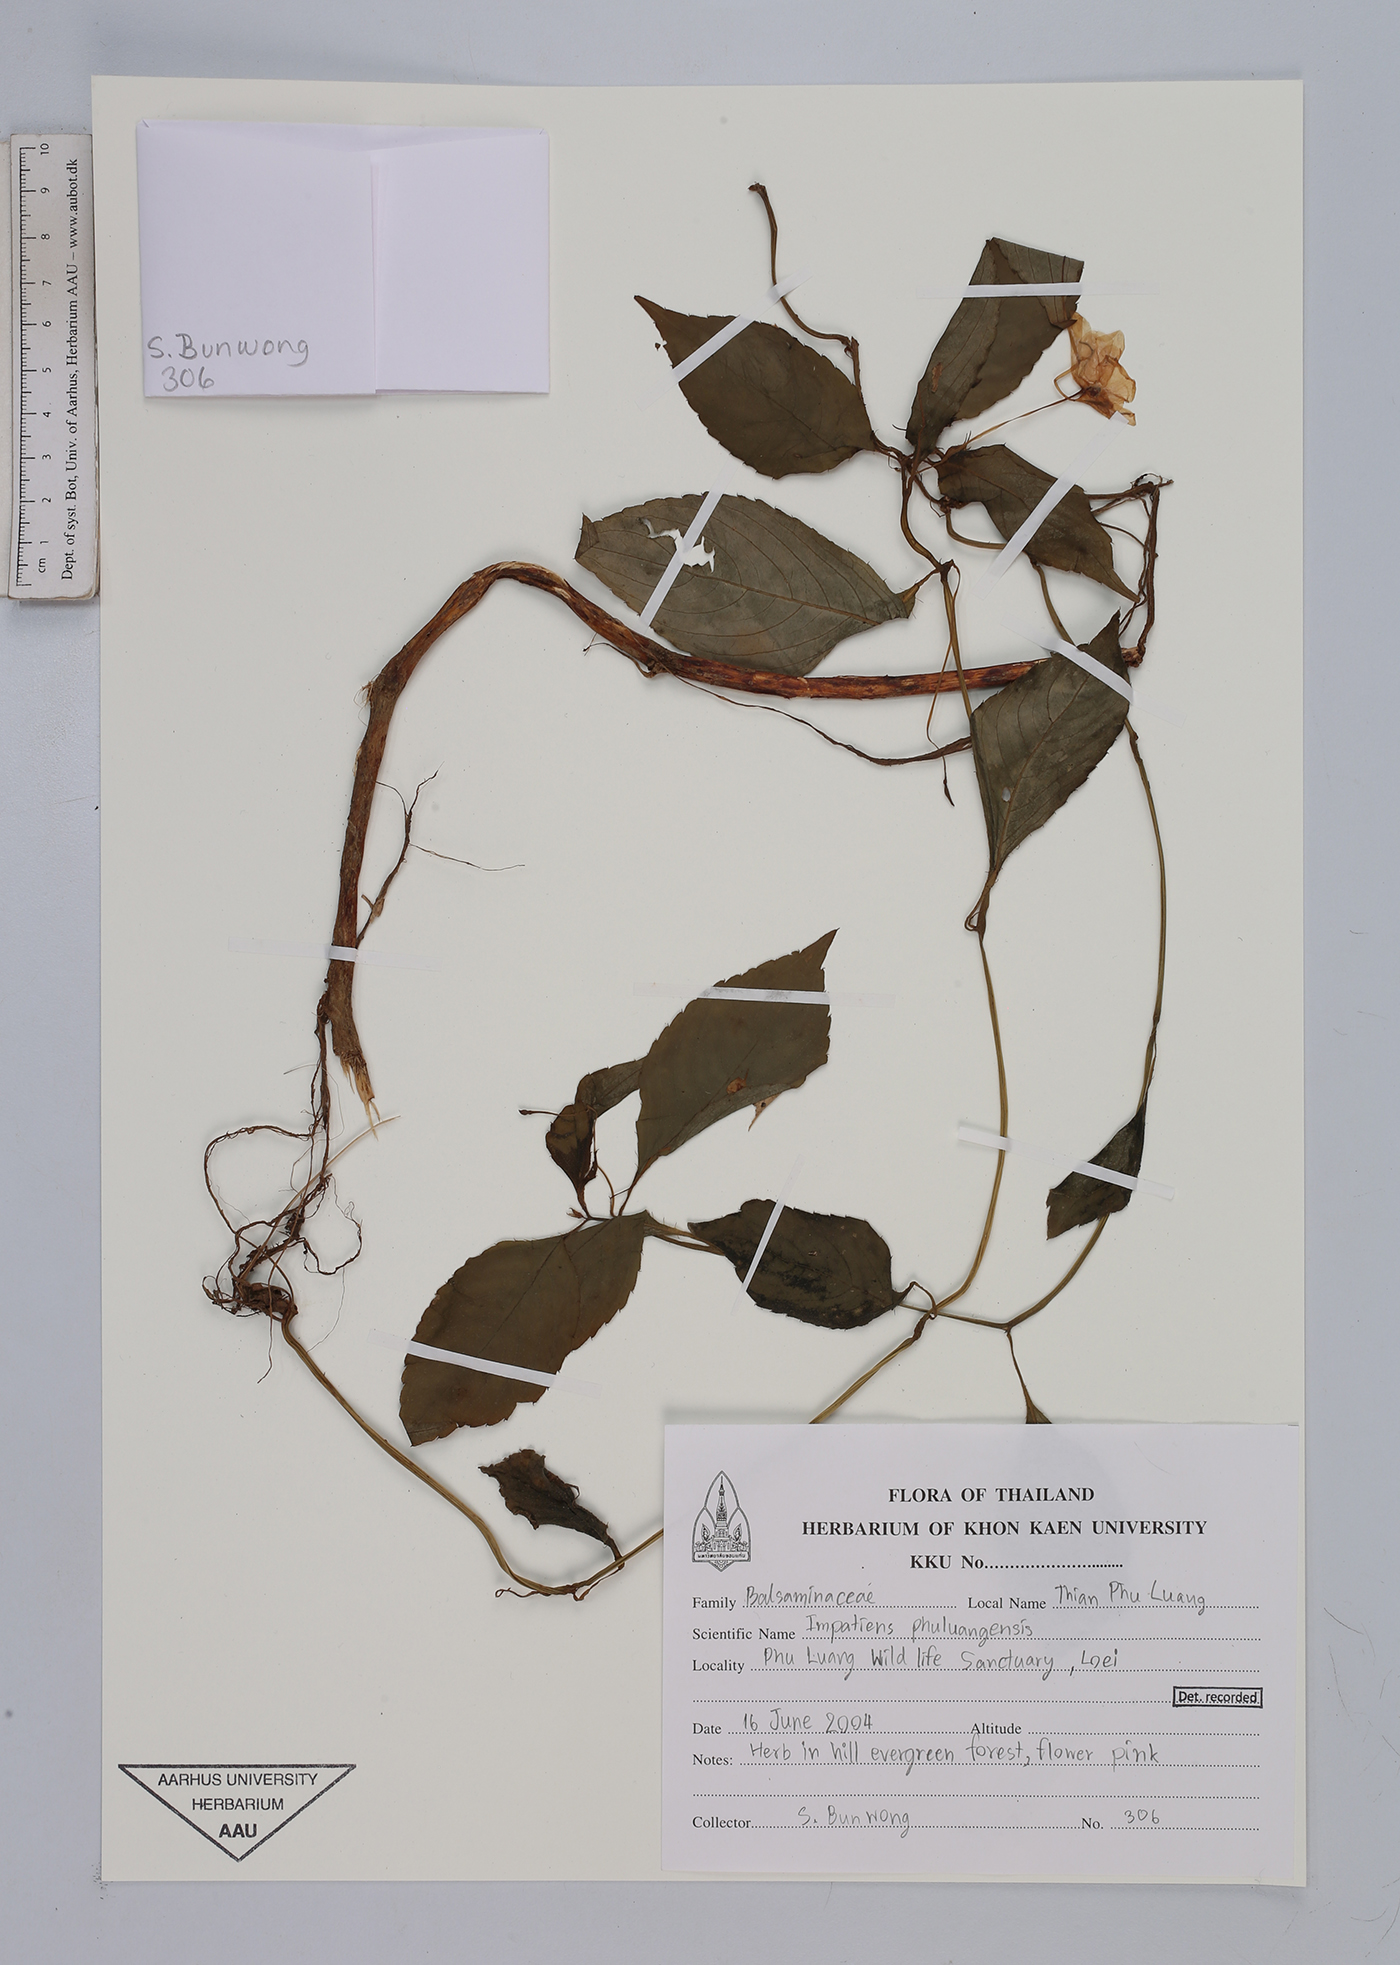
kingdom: Plantae
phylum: Tracheophyta
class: Magnoliopsida
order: Ericales
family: Balsaminaceae
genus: Impatiens
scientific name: Impatiens phuluangensis
